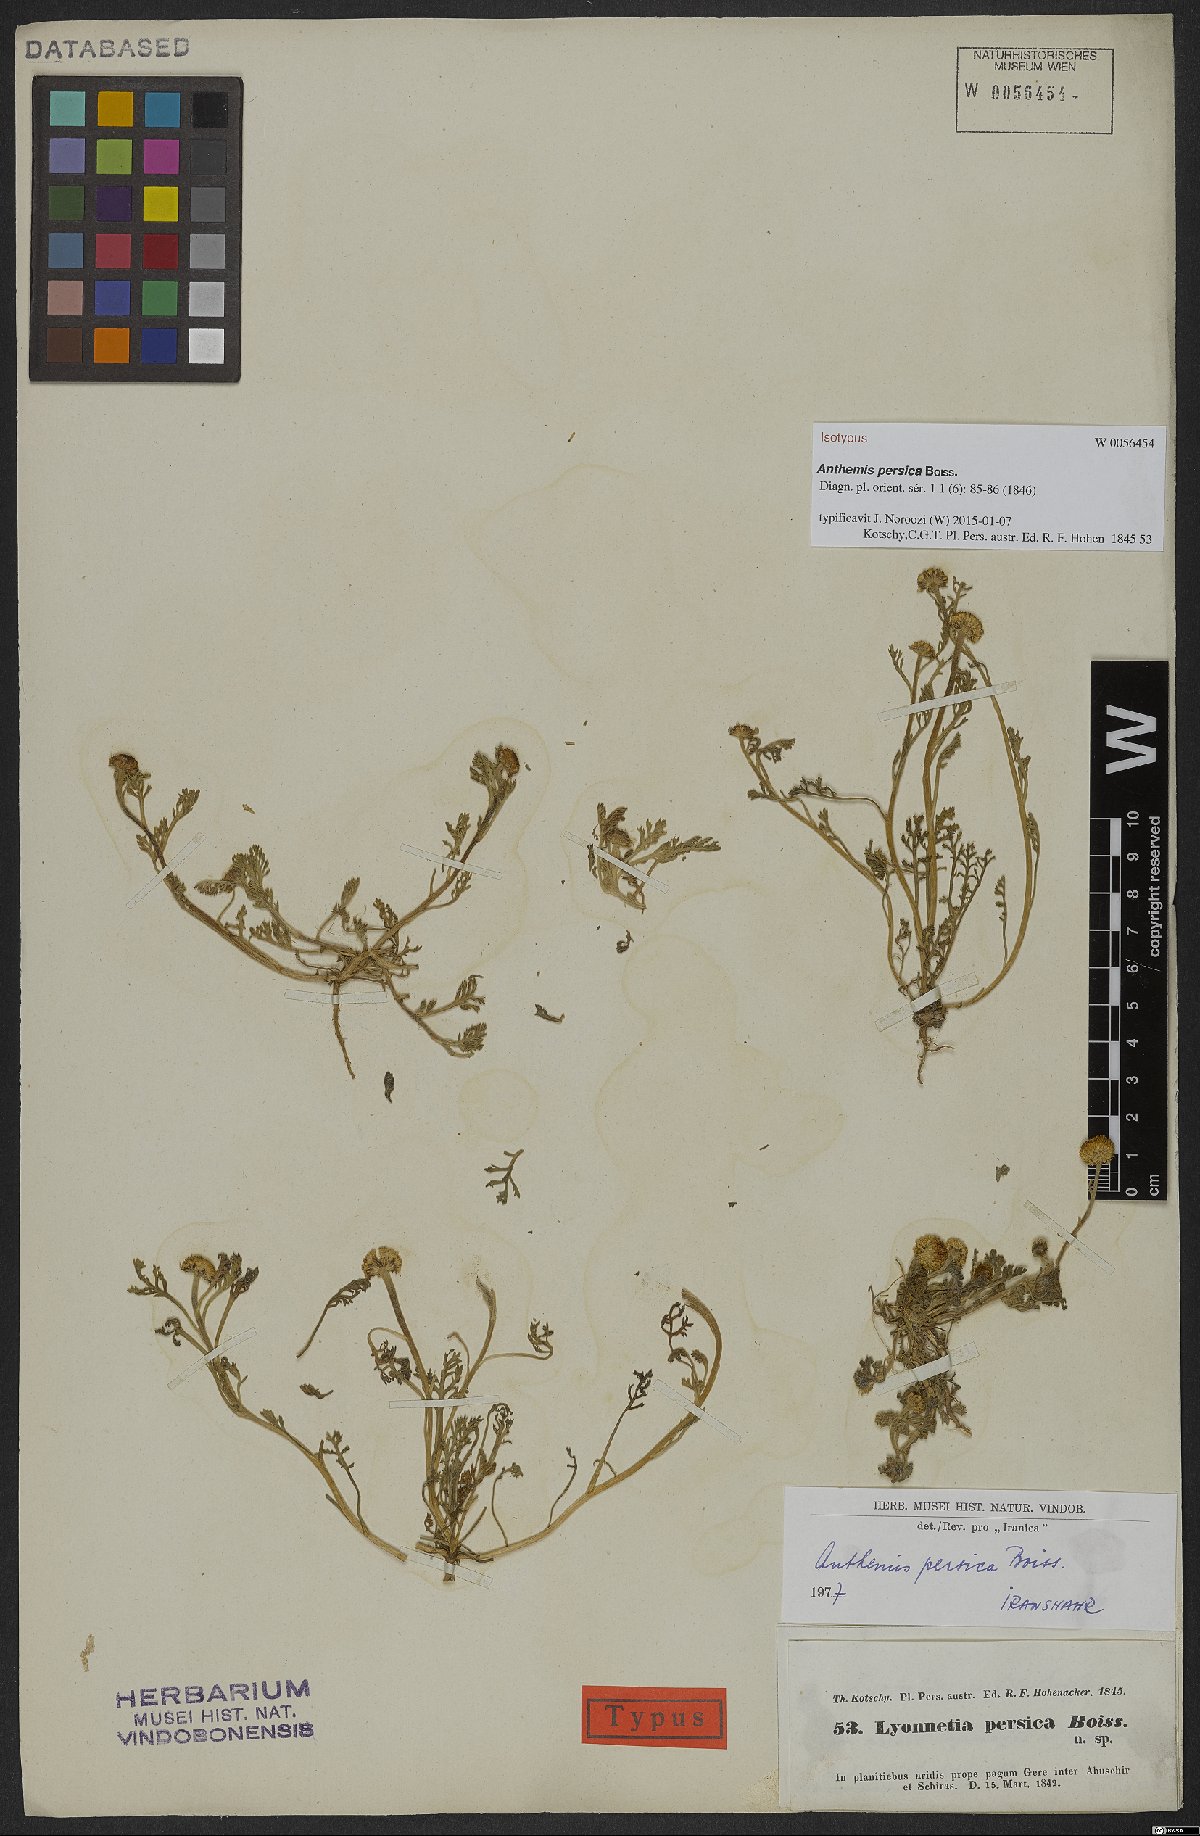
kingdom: Plantae
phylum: Tracheophyta
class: Magnoliopsida
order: Asterales
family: Asteraceae
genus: Anthemis
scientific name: Anthemis persica
